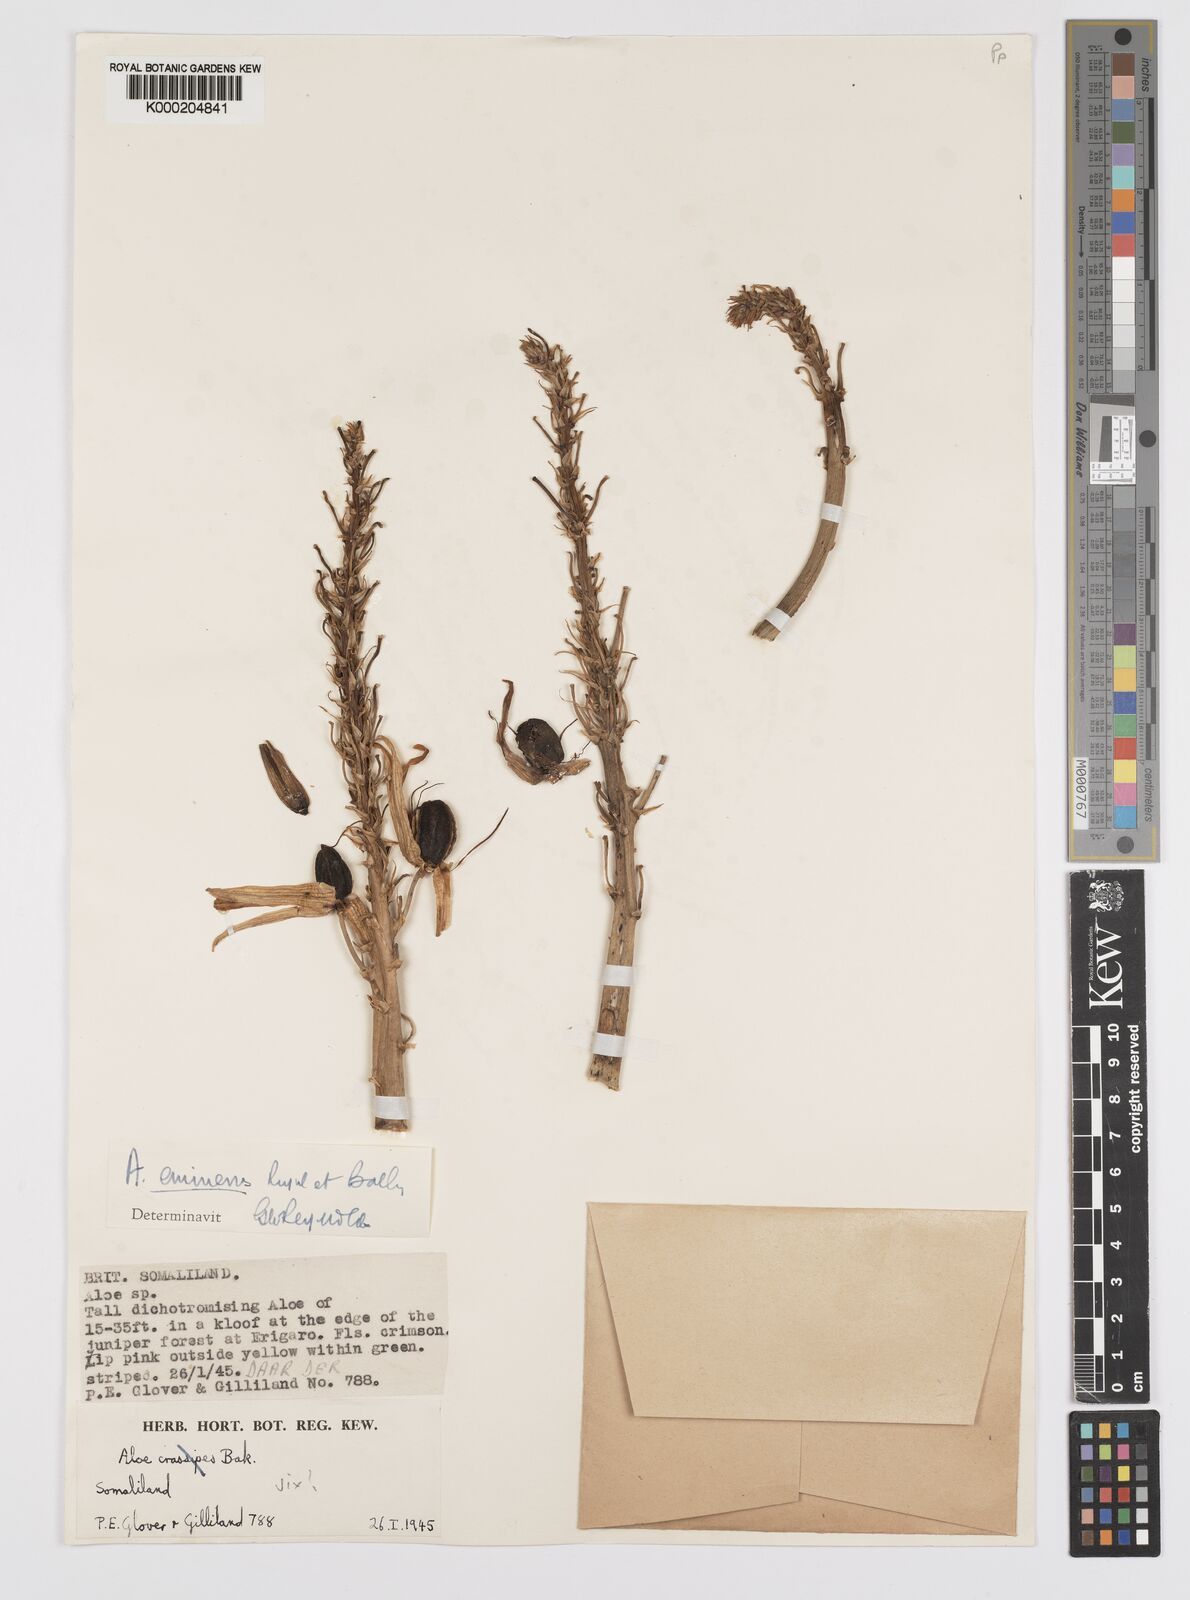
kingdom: Plantae
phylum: Tracheophyta
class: Liliopsida
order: Asparagales
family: Asphodelaceae
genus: Aloidendron
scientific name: Aloidendron eminens
